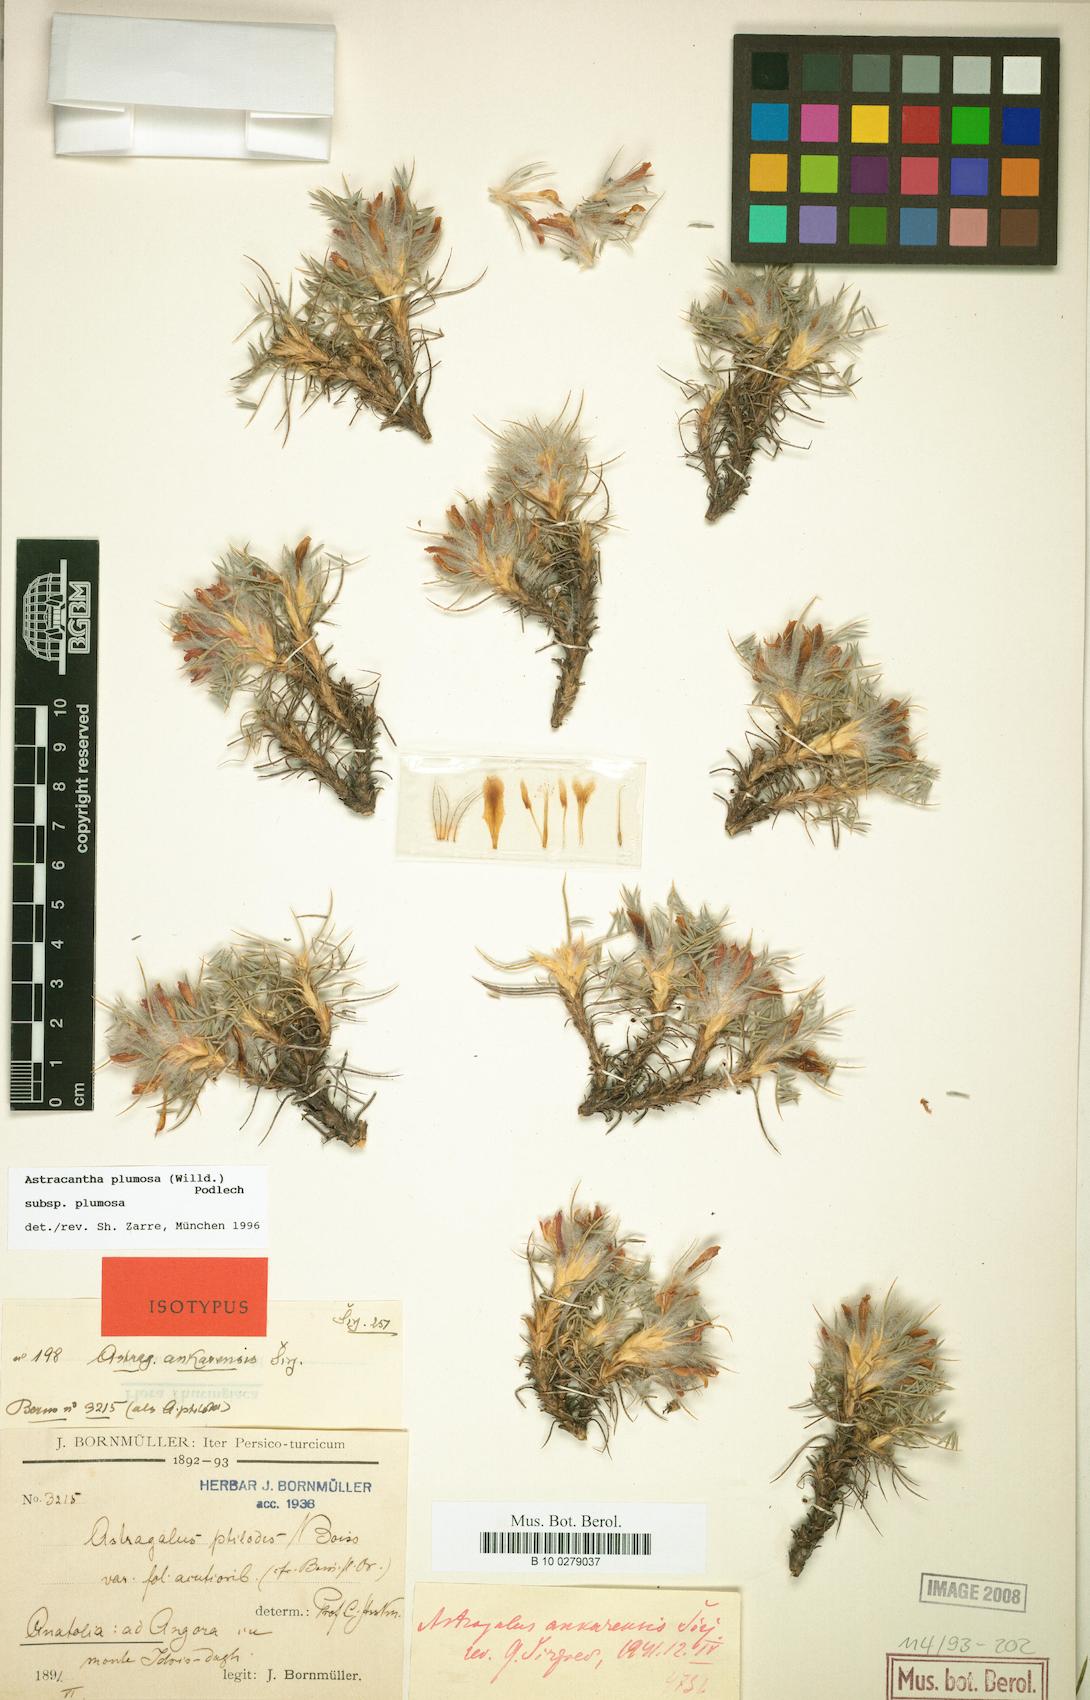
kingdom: Plantae
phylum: Tracheophyta
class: Magnoliopsida
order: Fabales
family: Fabaceae
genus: Astragalus
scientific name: Astragalus plumosus
